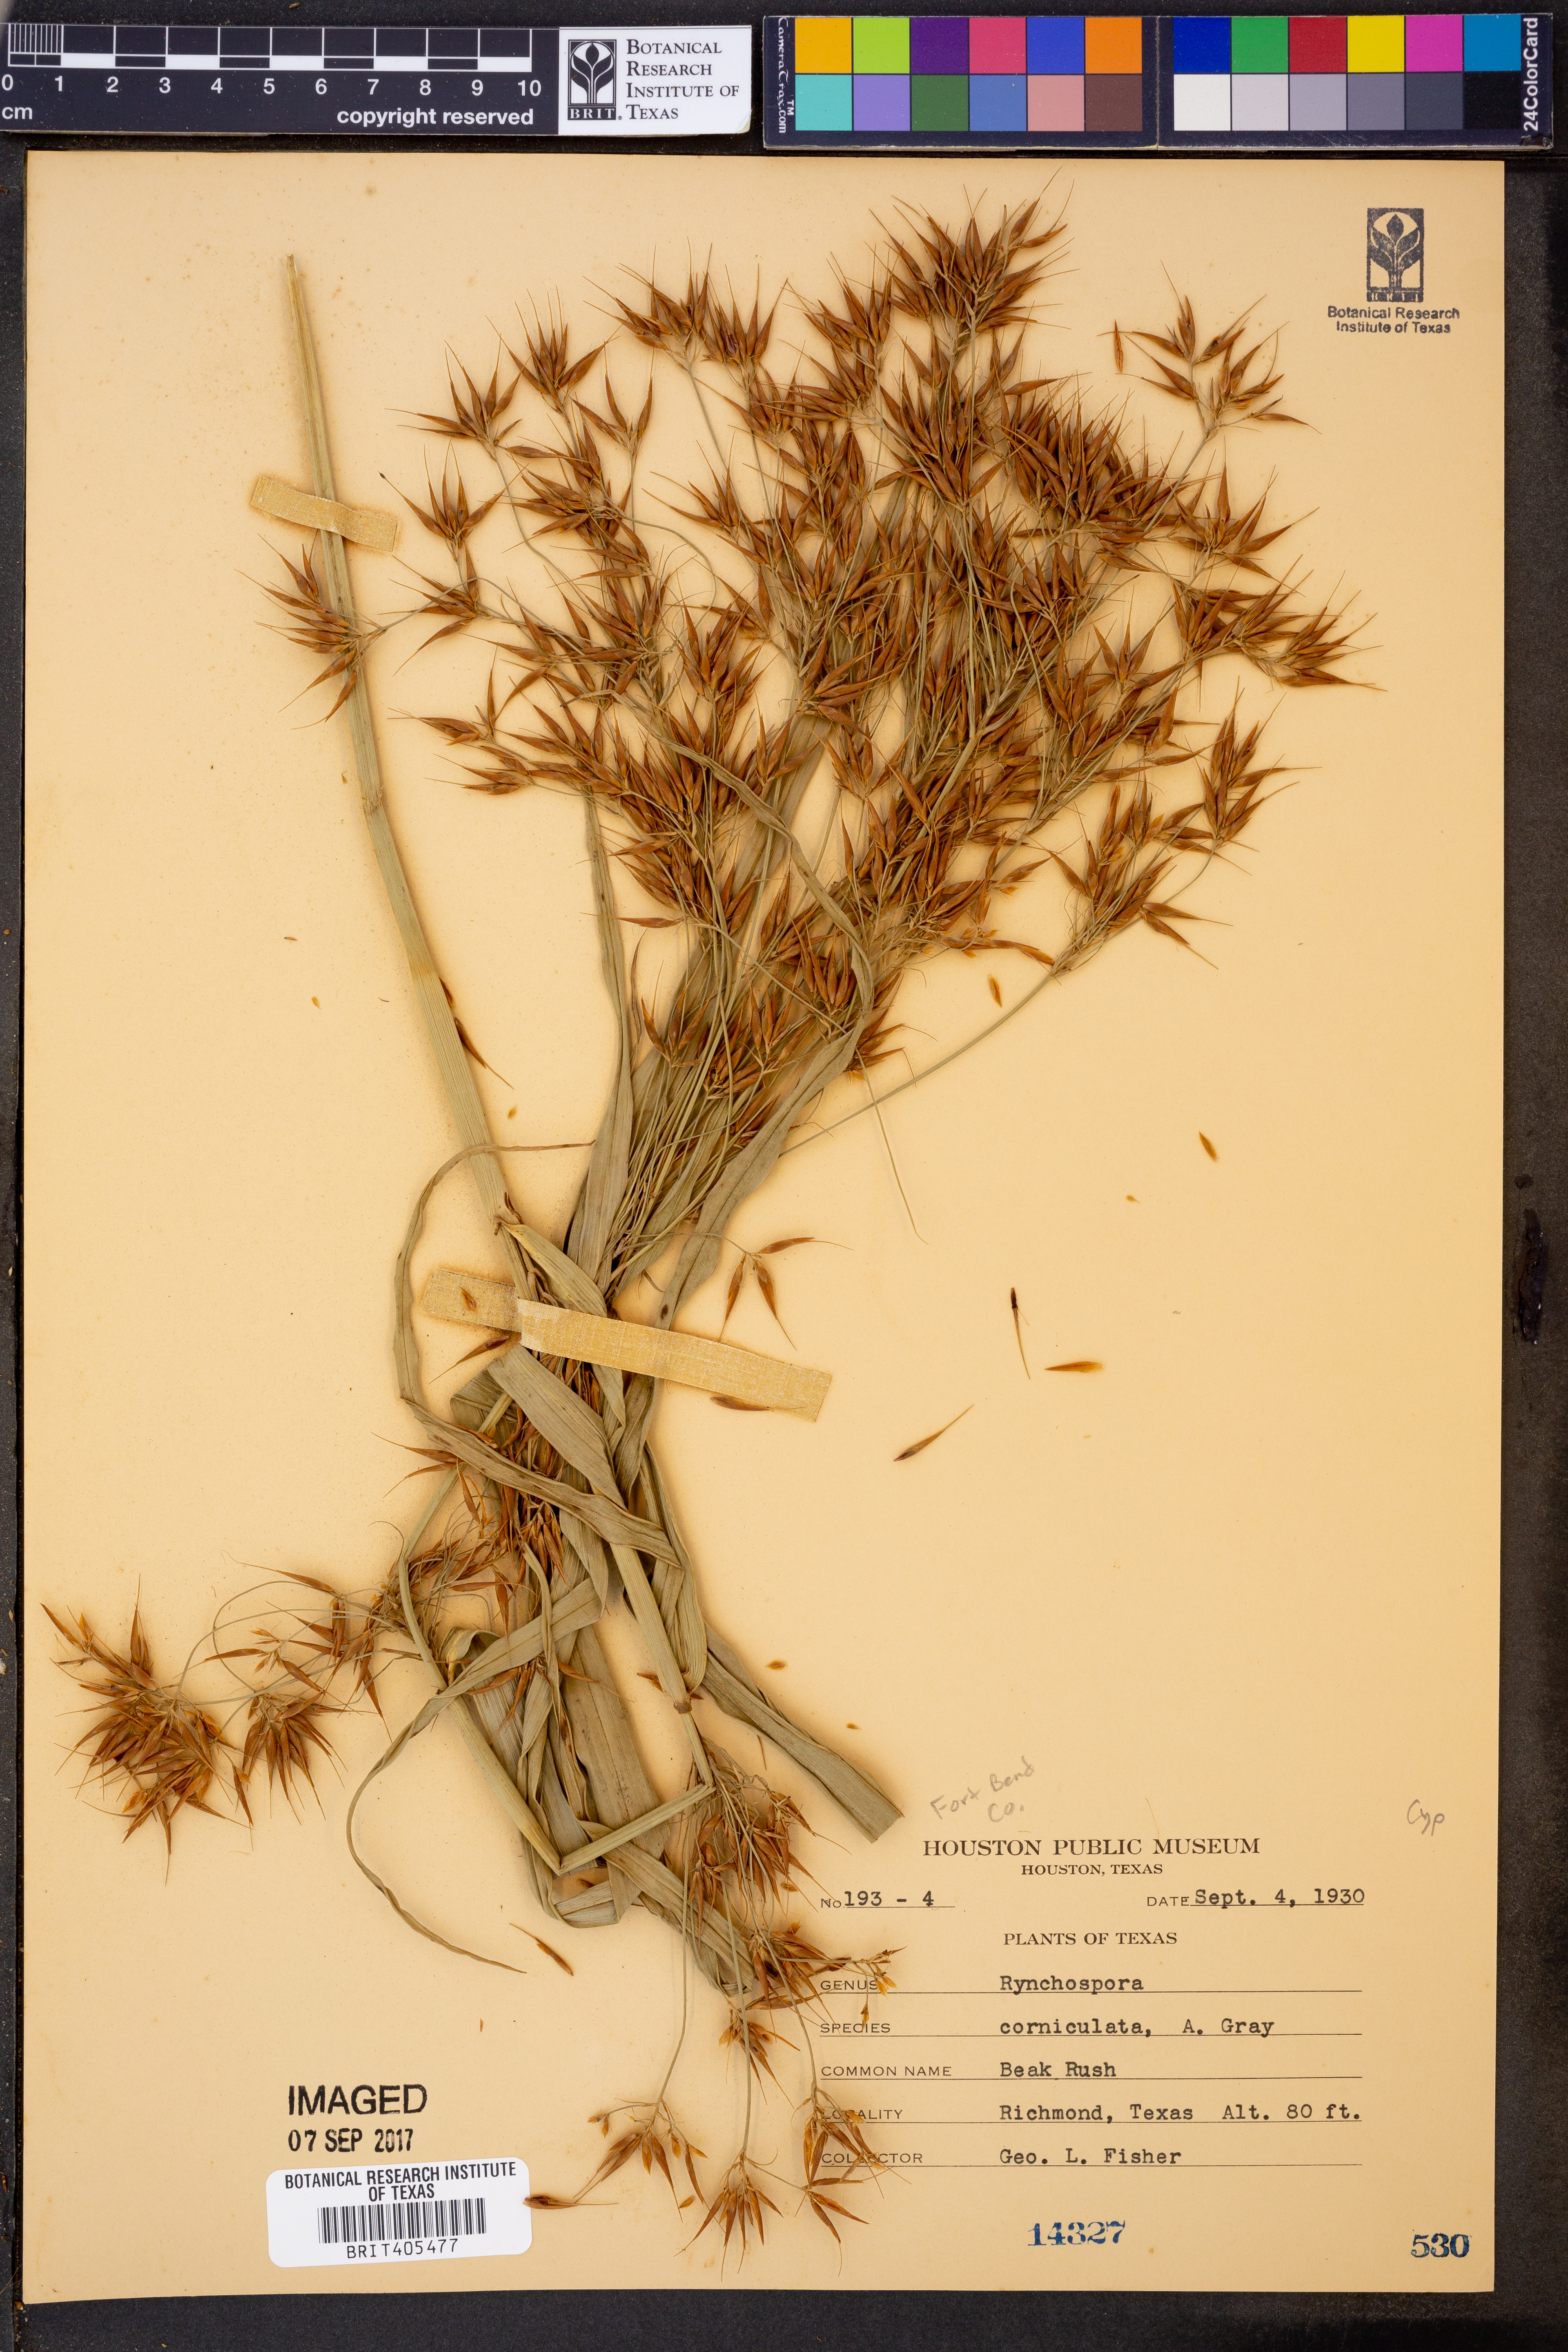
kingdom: Plantae
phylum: Tracheophyta
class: Liliopsida
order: Poales
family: Cyperaceae
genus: Rhynchospora
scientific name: Rhynchospora corniculata
